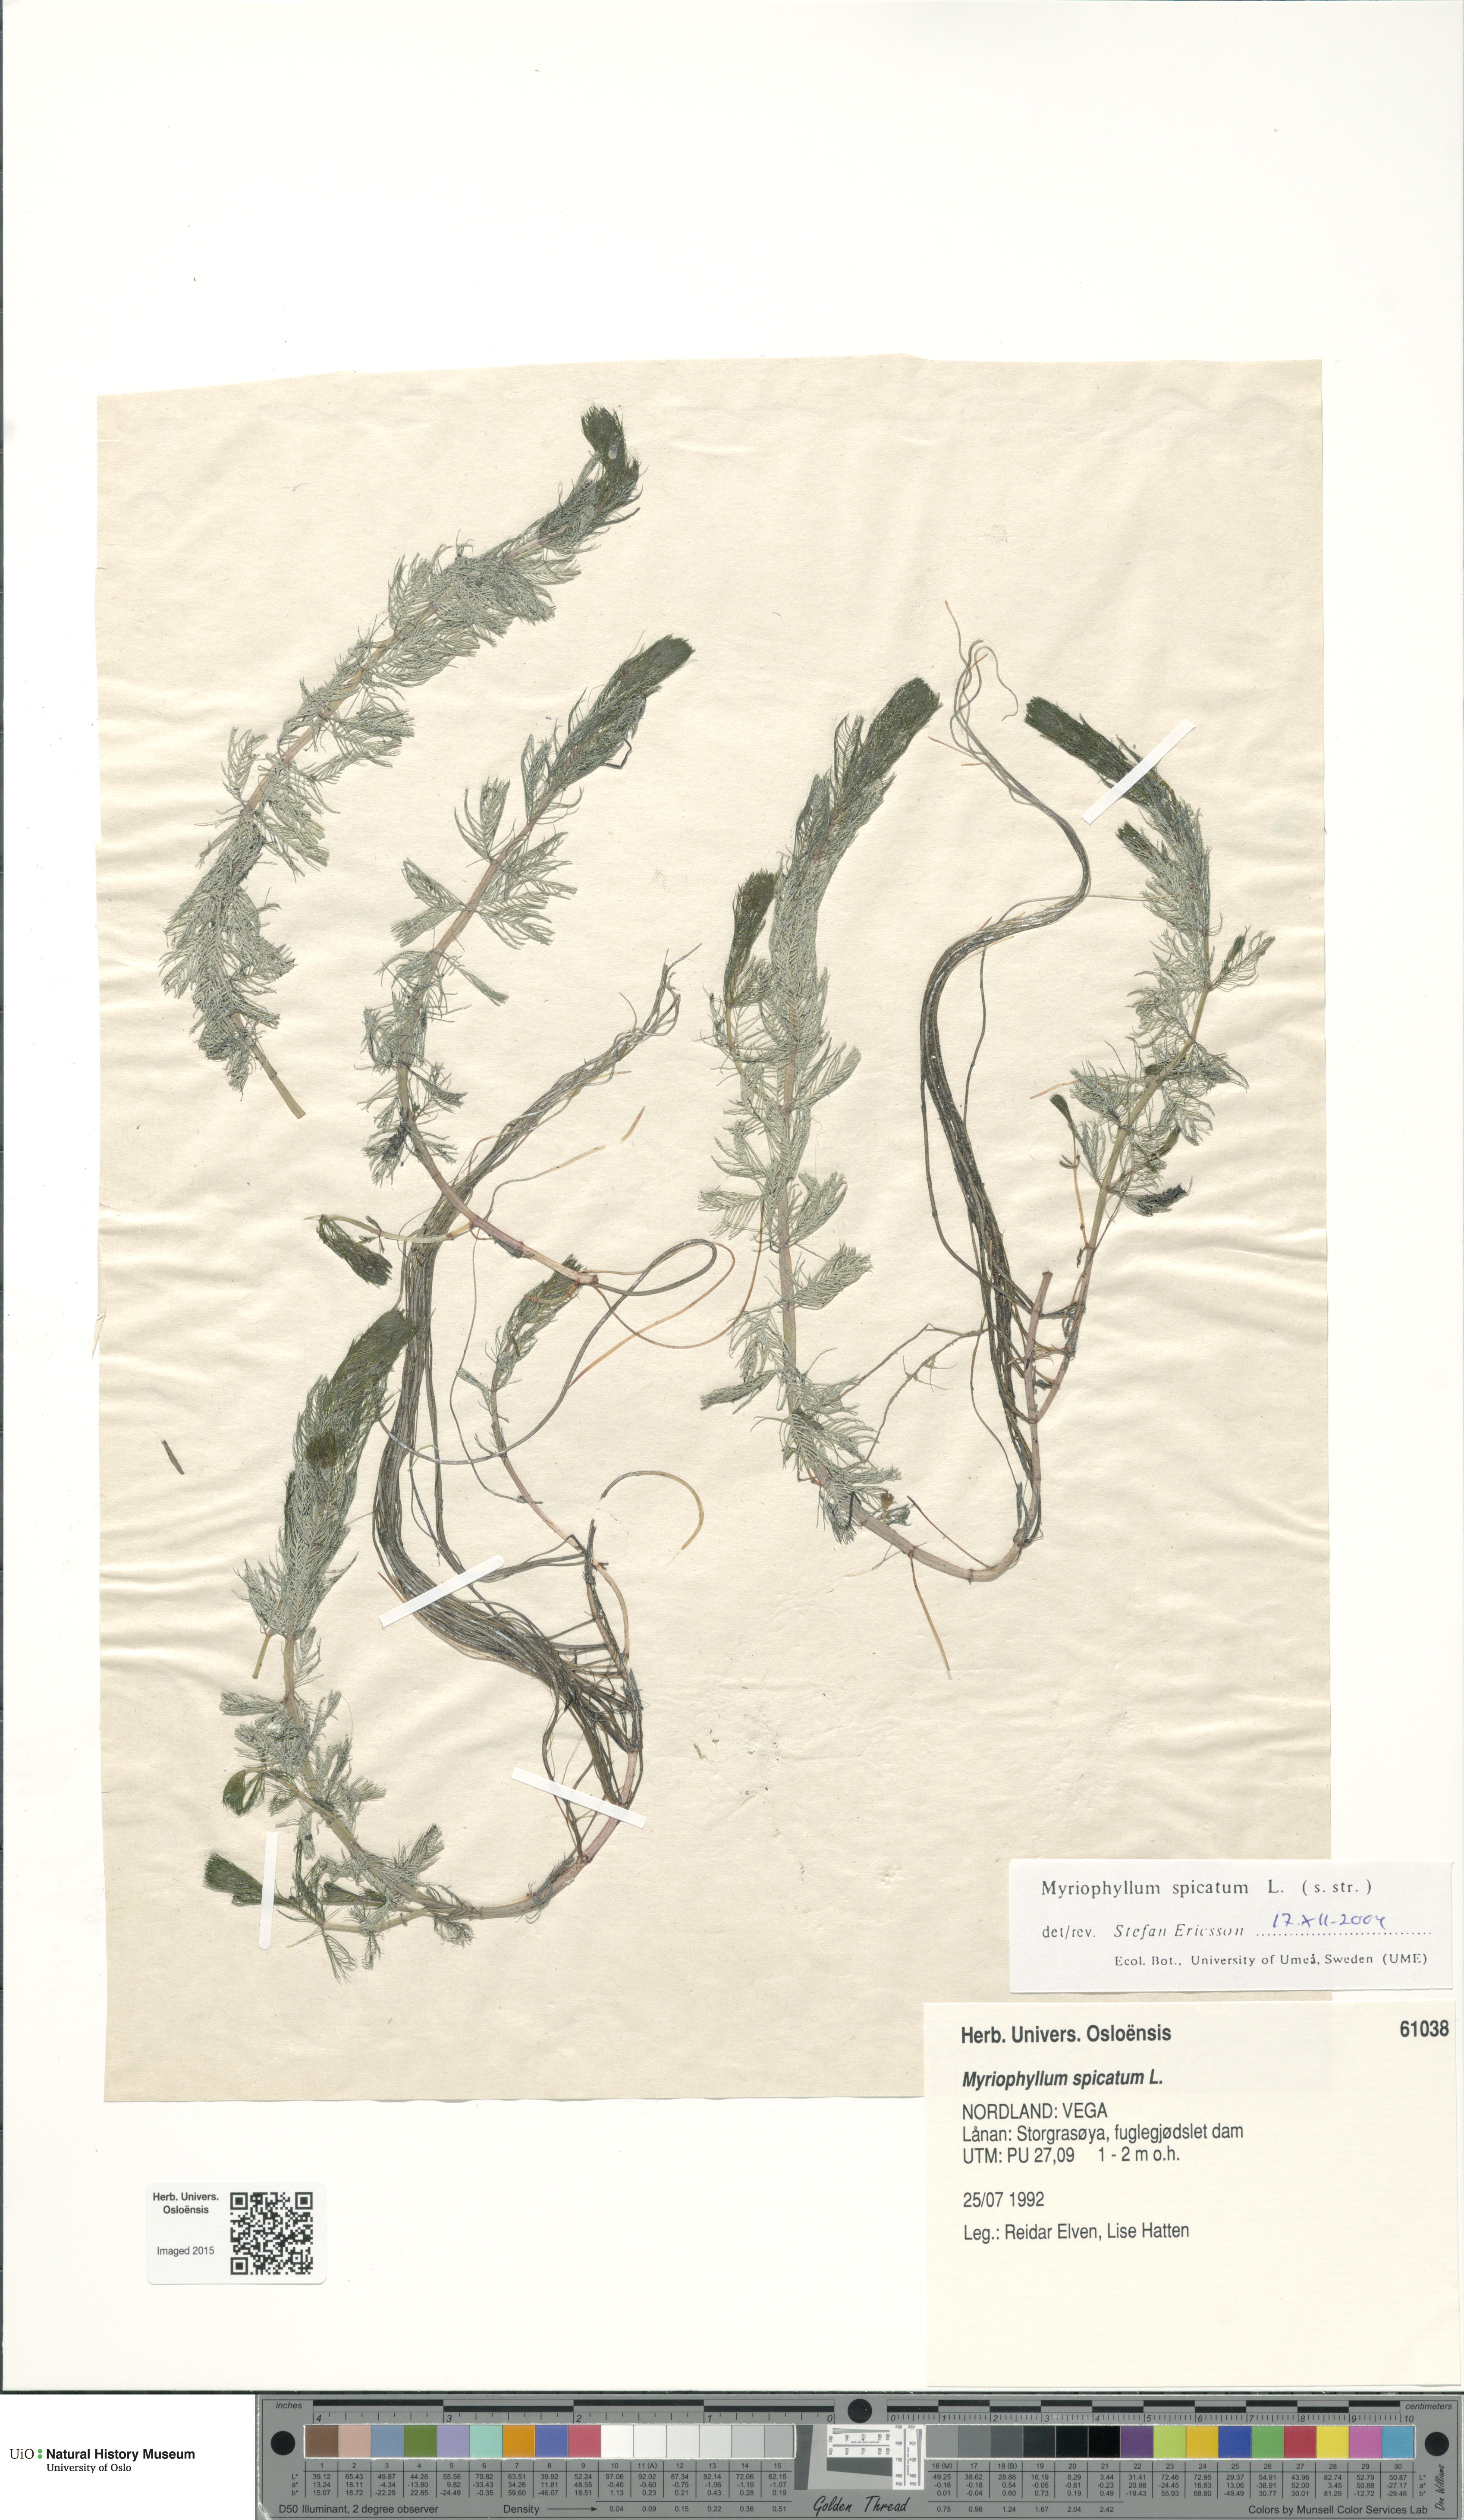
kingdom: Plantae
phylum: Tracheophyta
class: Magnoliopsida
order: Saxifragales
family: Haloragaceae
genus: Myriophyllum
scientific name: Myriophyllum spicatum
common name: Spiked water-milfoil
